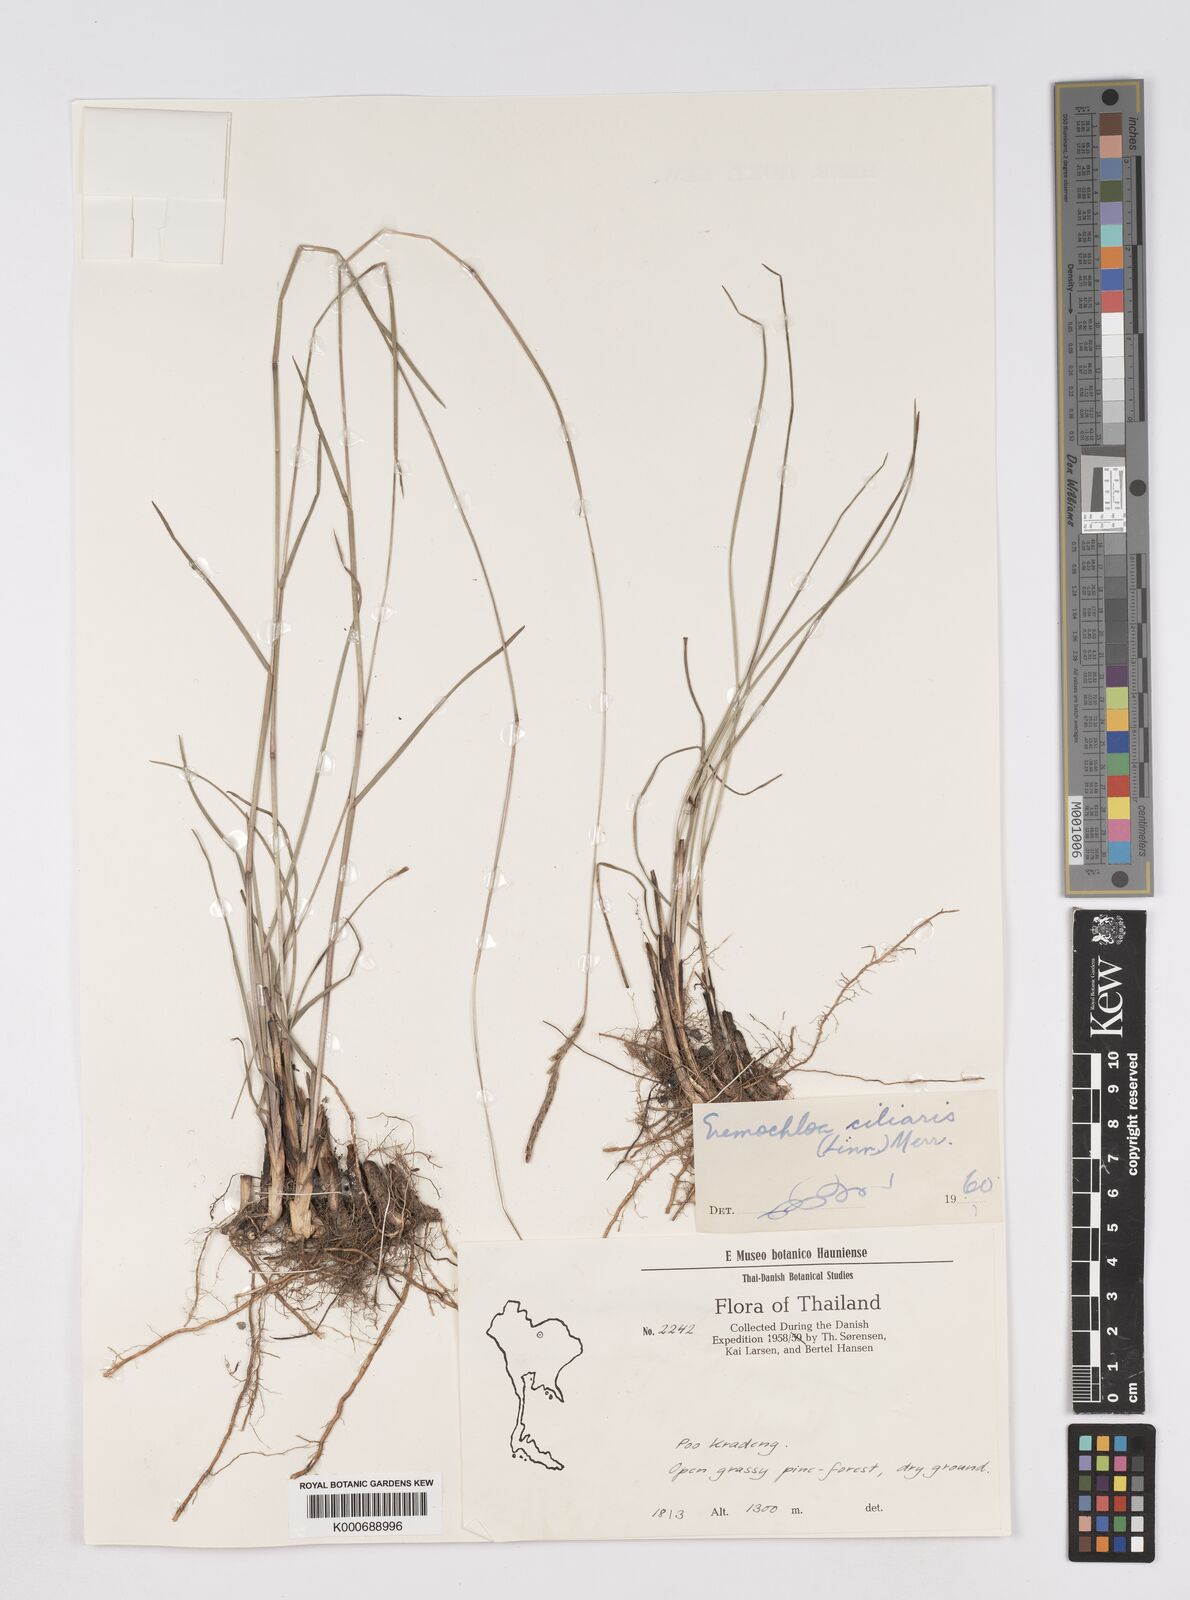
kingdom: Plantae
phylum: Tracheophyta
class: Liliopsida
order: Poales
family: Poaceae
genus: Eremochloa
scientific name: Eremochloa ciliaris
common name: Fringed centipede grass
